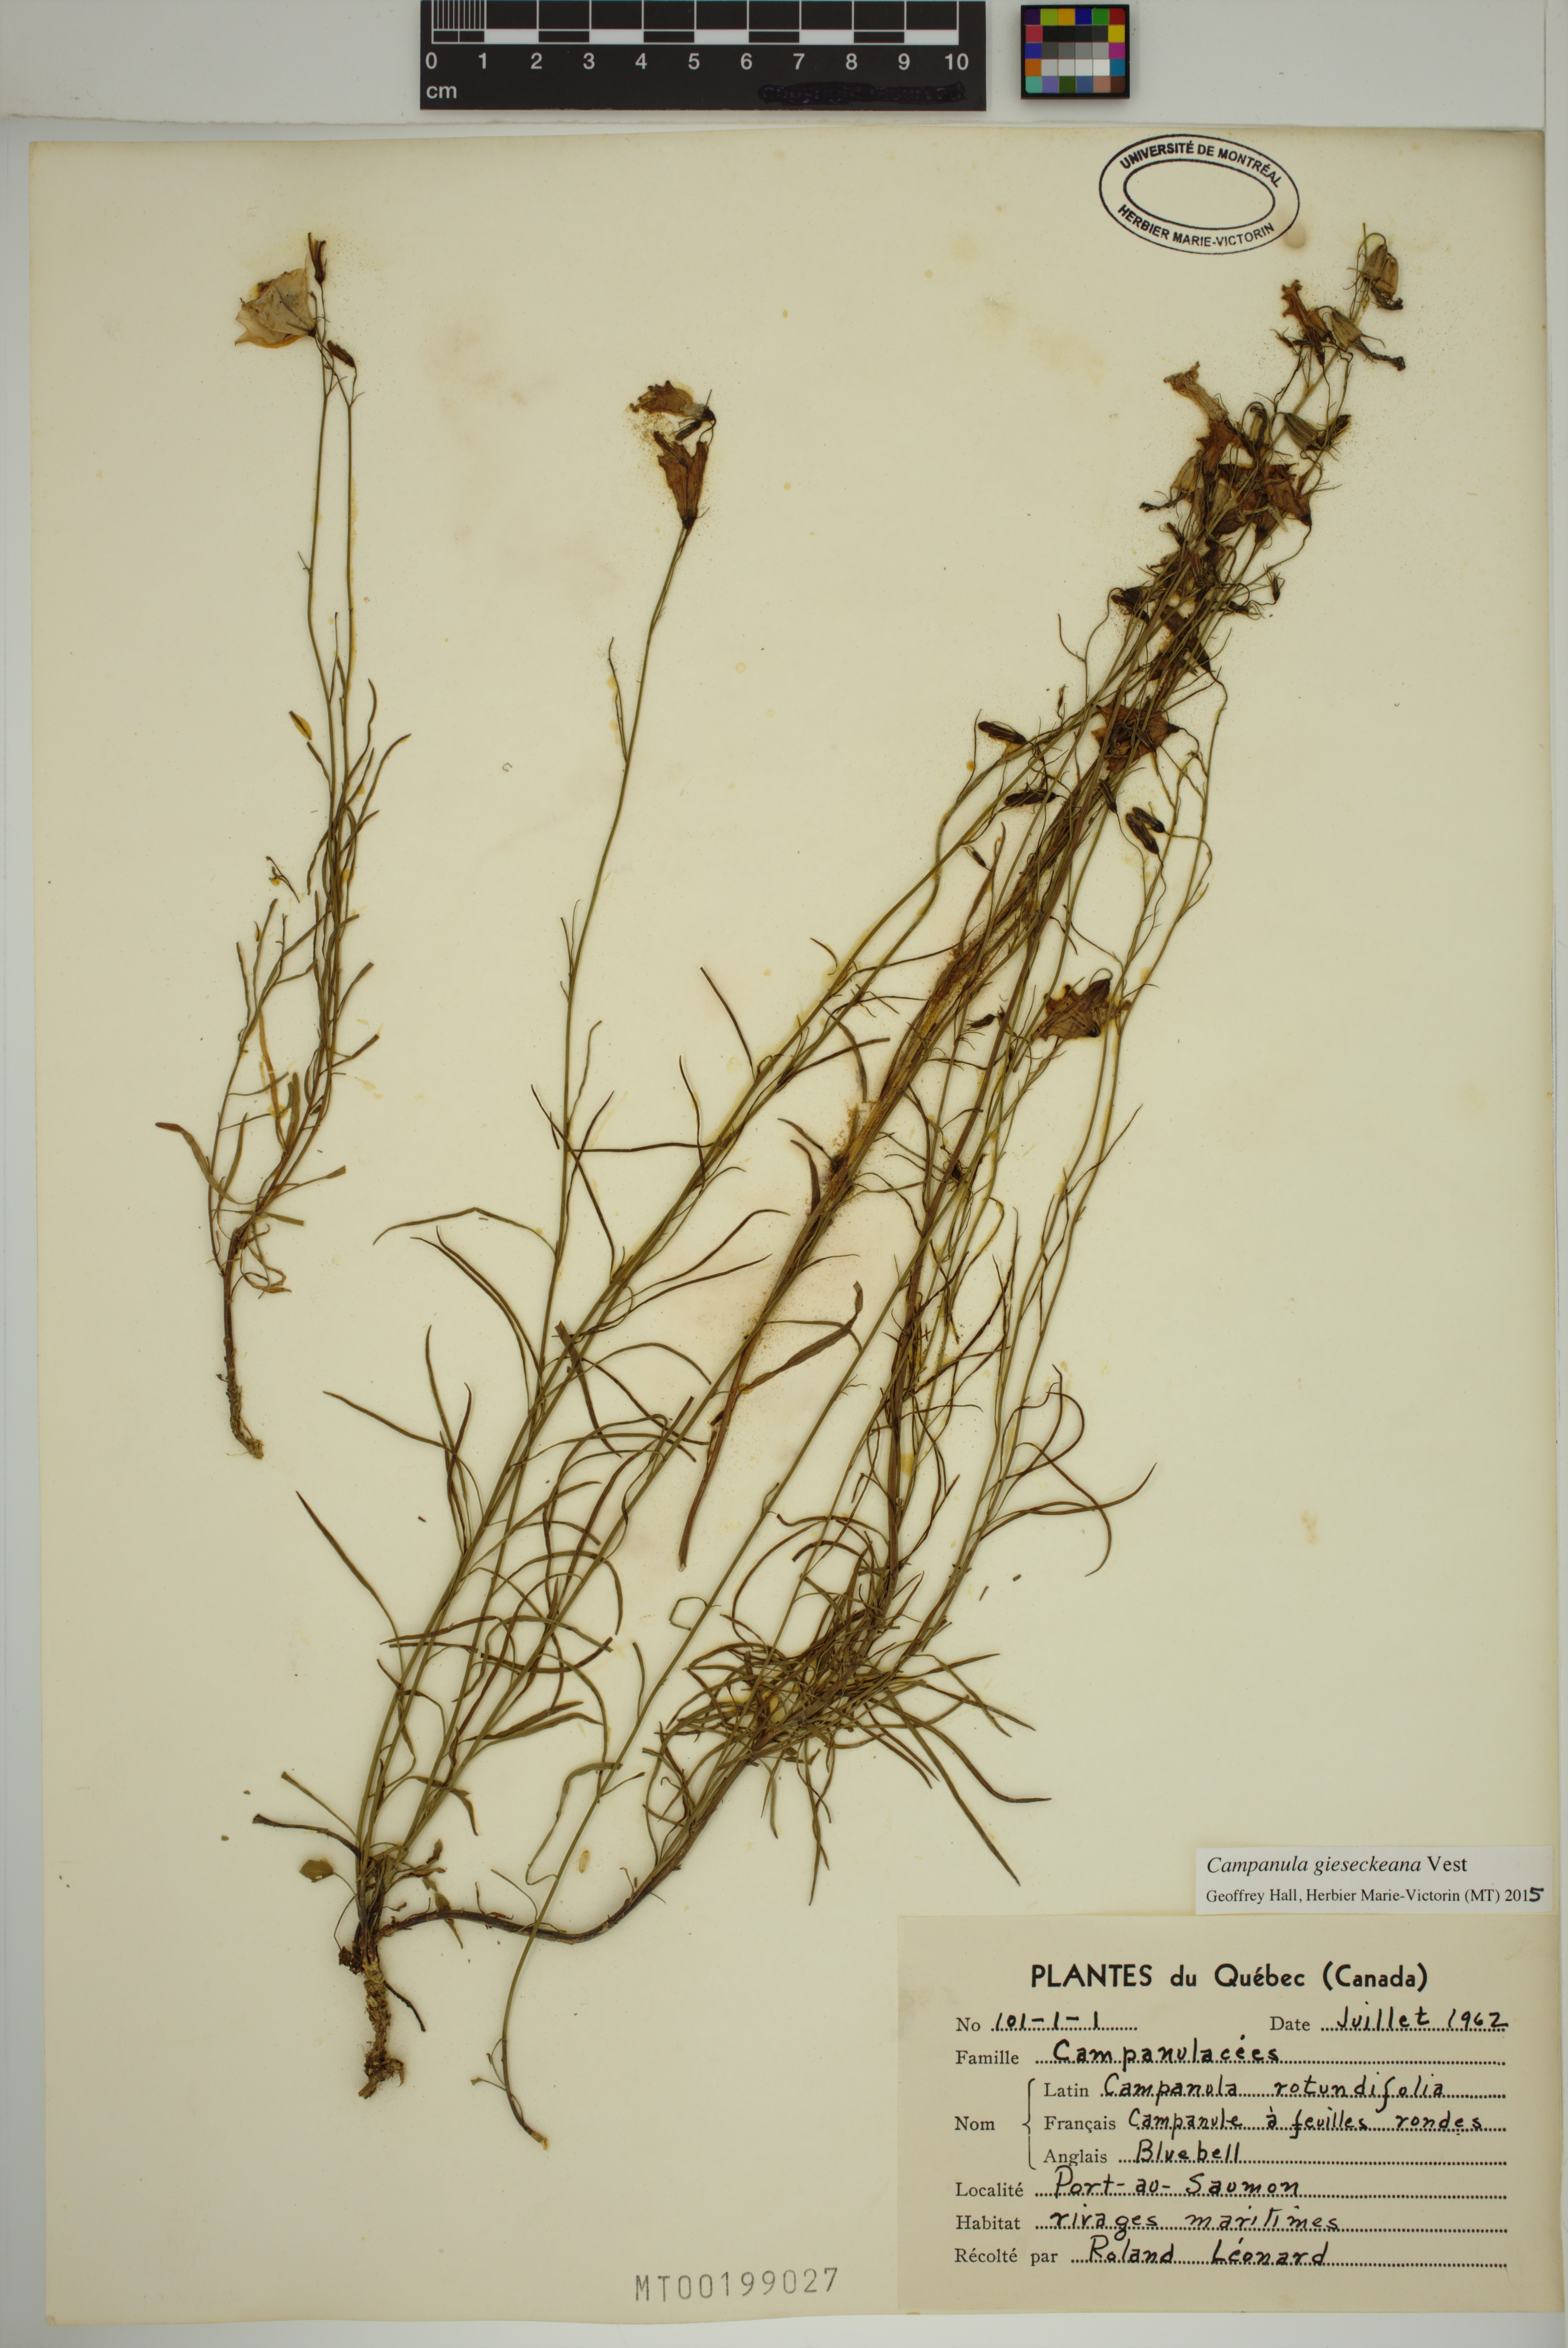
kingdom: Plantae
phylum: Tracheophyta
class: Magnoliopsida
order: Asterales
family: Campanulaceae
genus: Campanula
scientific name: Campanula rotundifolia
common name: Harebell
